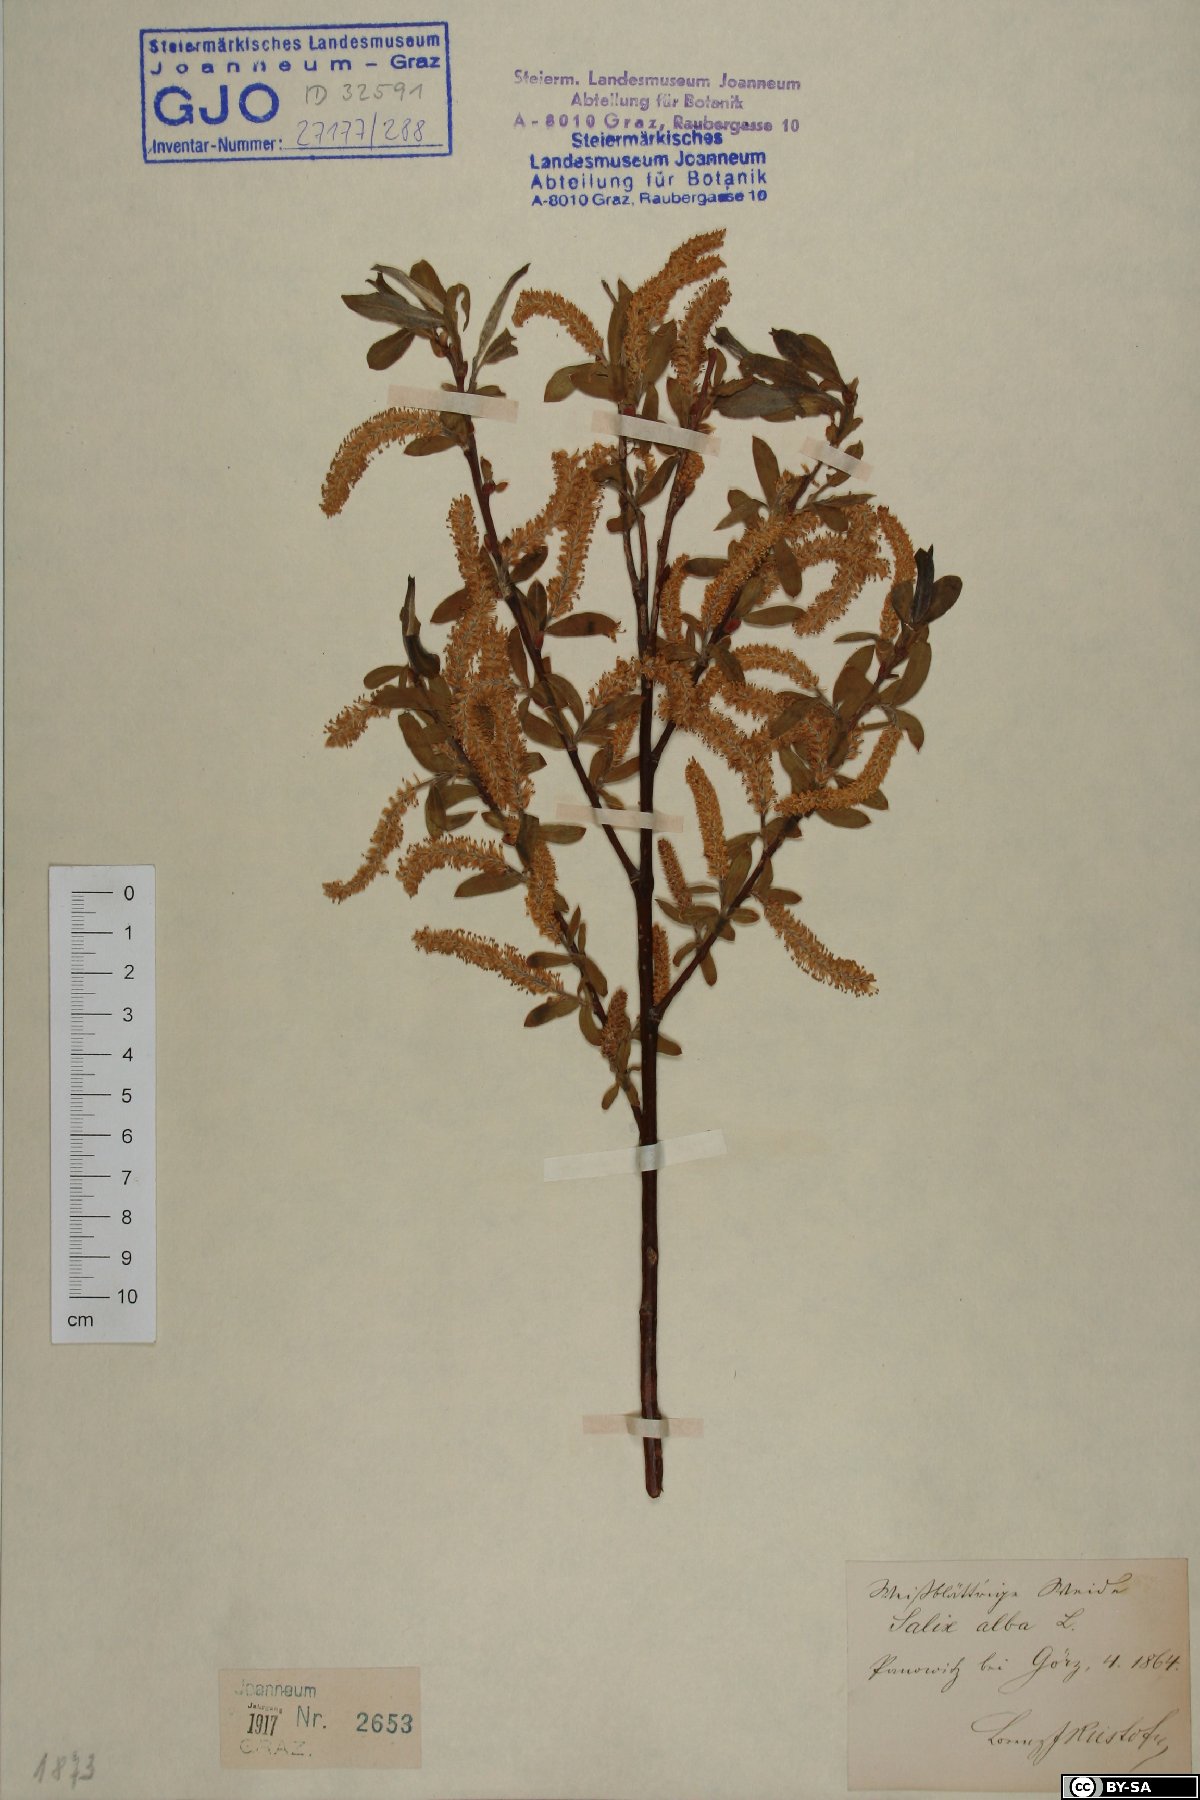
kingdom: Plantae
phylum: Tracheophyta
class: Magnoliopsida
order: Malpighiales
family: Salicaceae
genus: Salix
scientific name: Salix alba
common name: White willow
